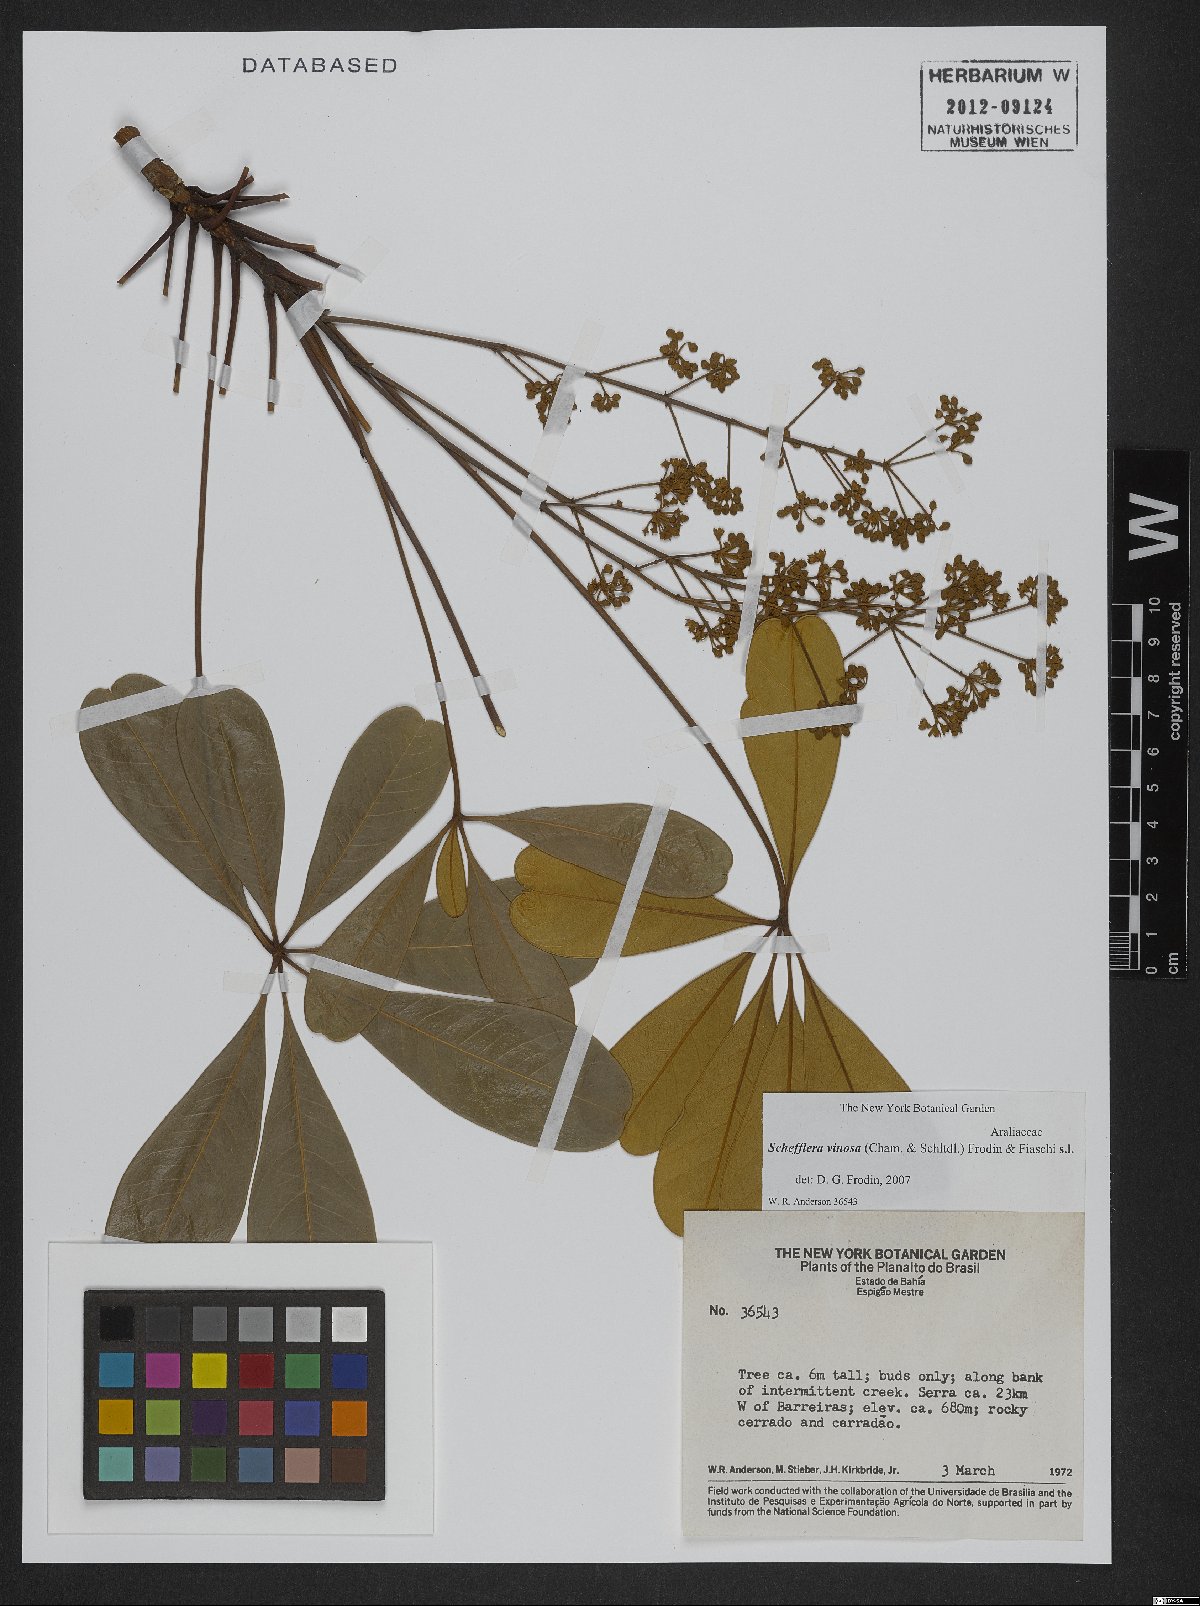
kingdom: Plantae
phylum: Tracheophyta
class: Magnoliopsida
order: Apiales
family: Araliaceae
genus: Didymopanax
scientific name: Didymopanax vinosus
